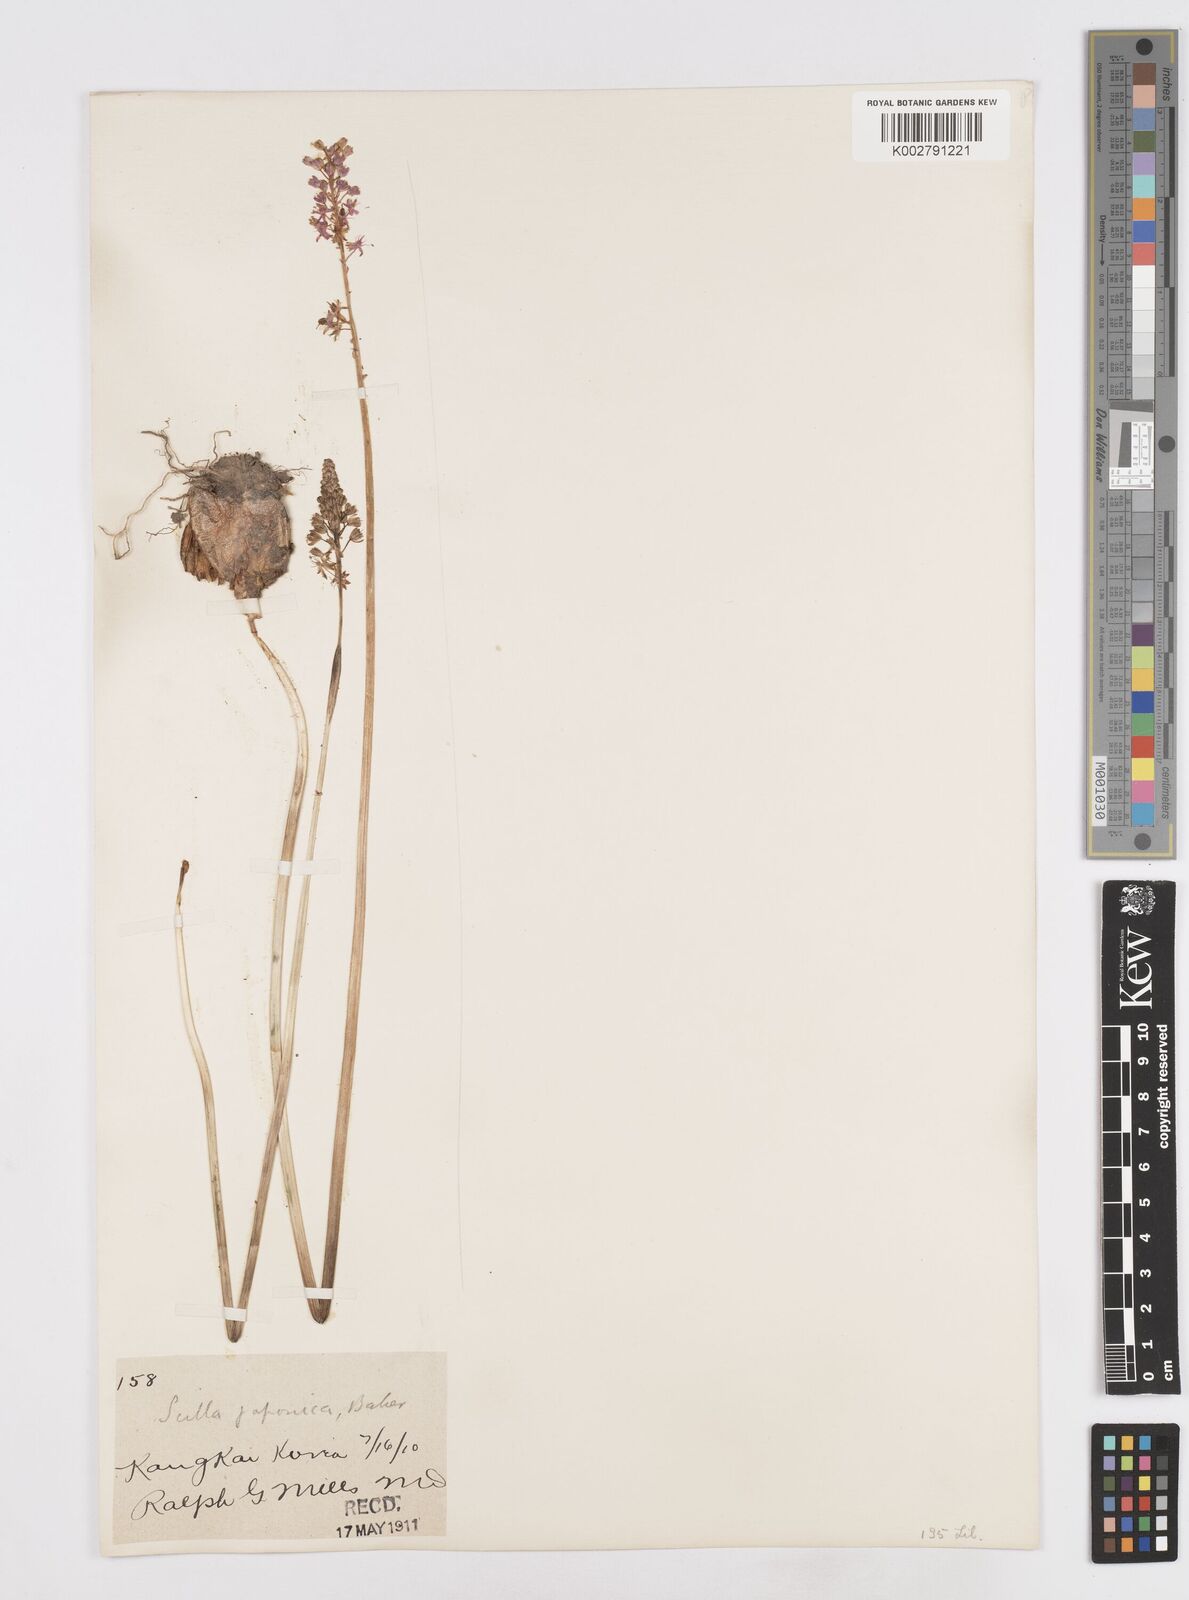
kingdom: Plantae
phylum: Tracheophyta
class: Liliopsida
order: Liliales
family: Melanthiaceae
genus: Helonias
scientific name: Helonias breviscapa
